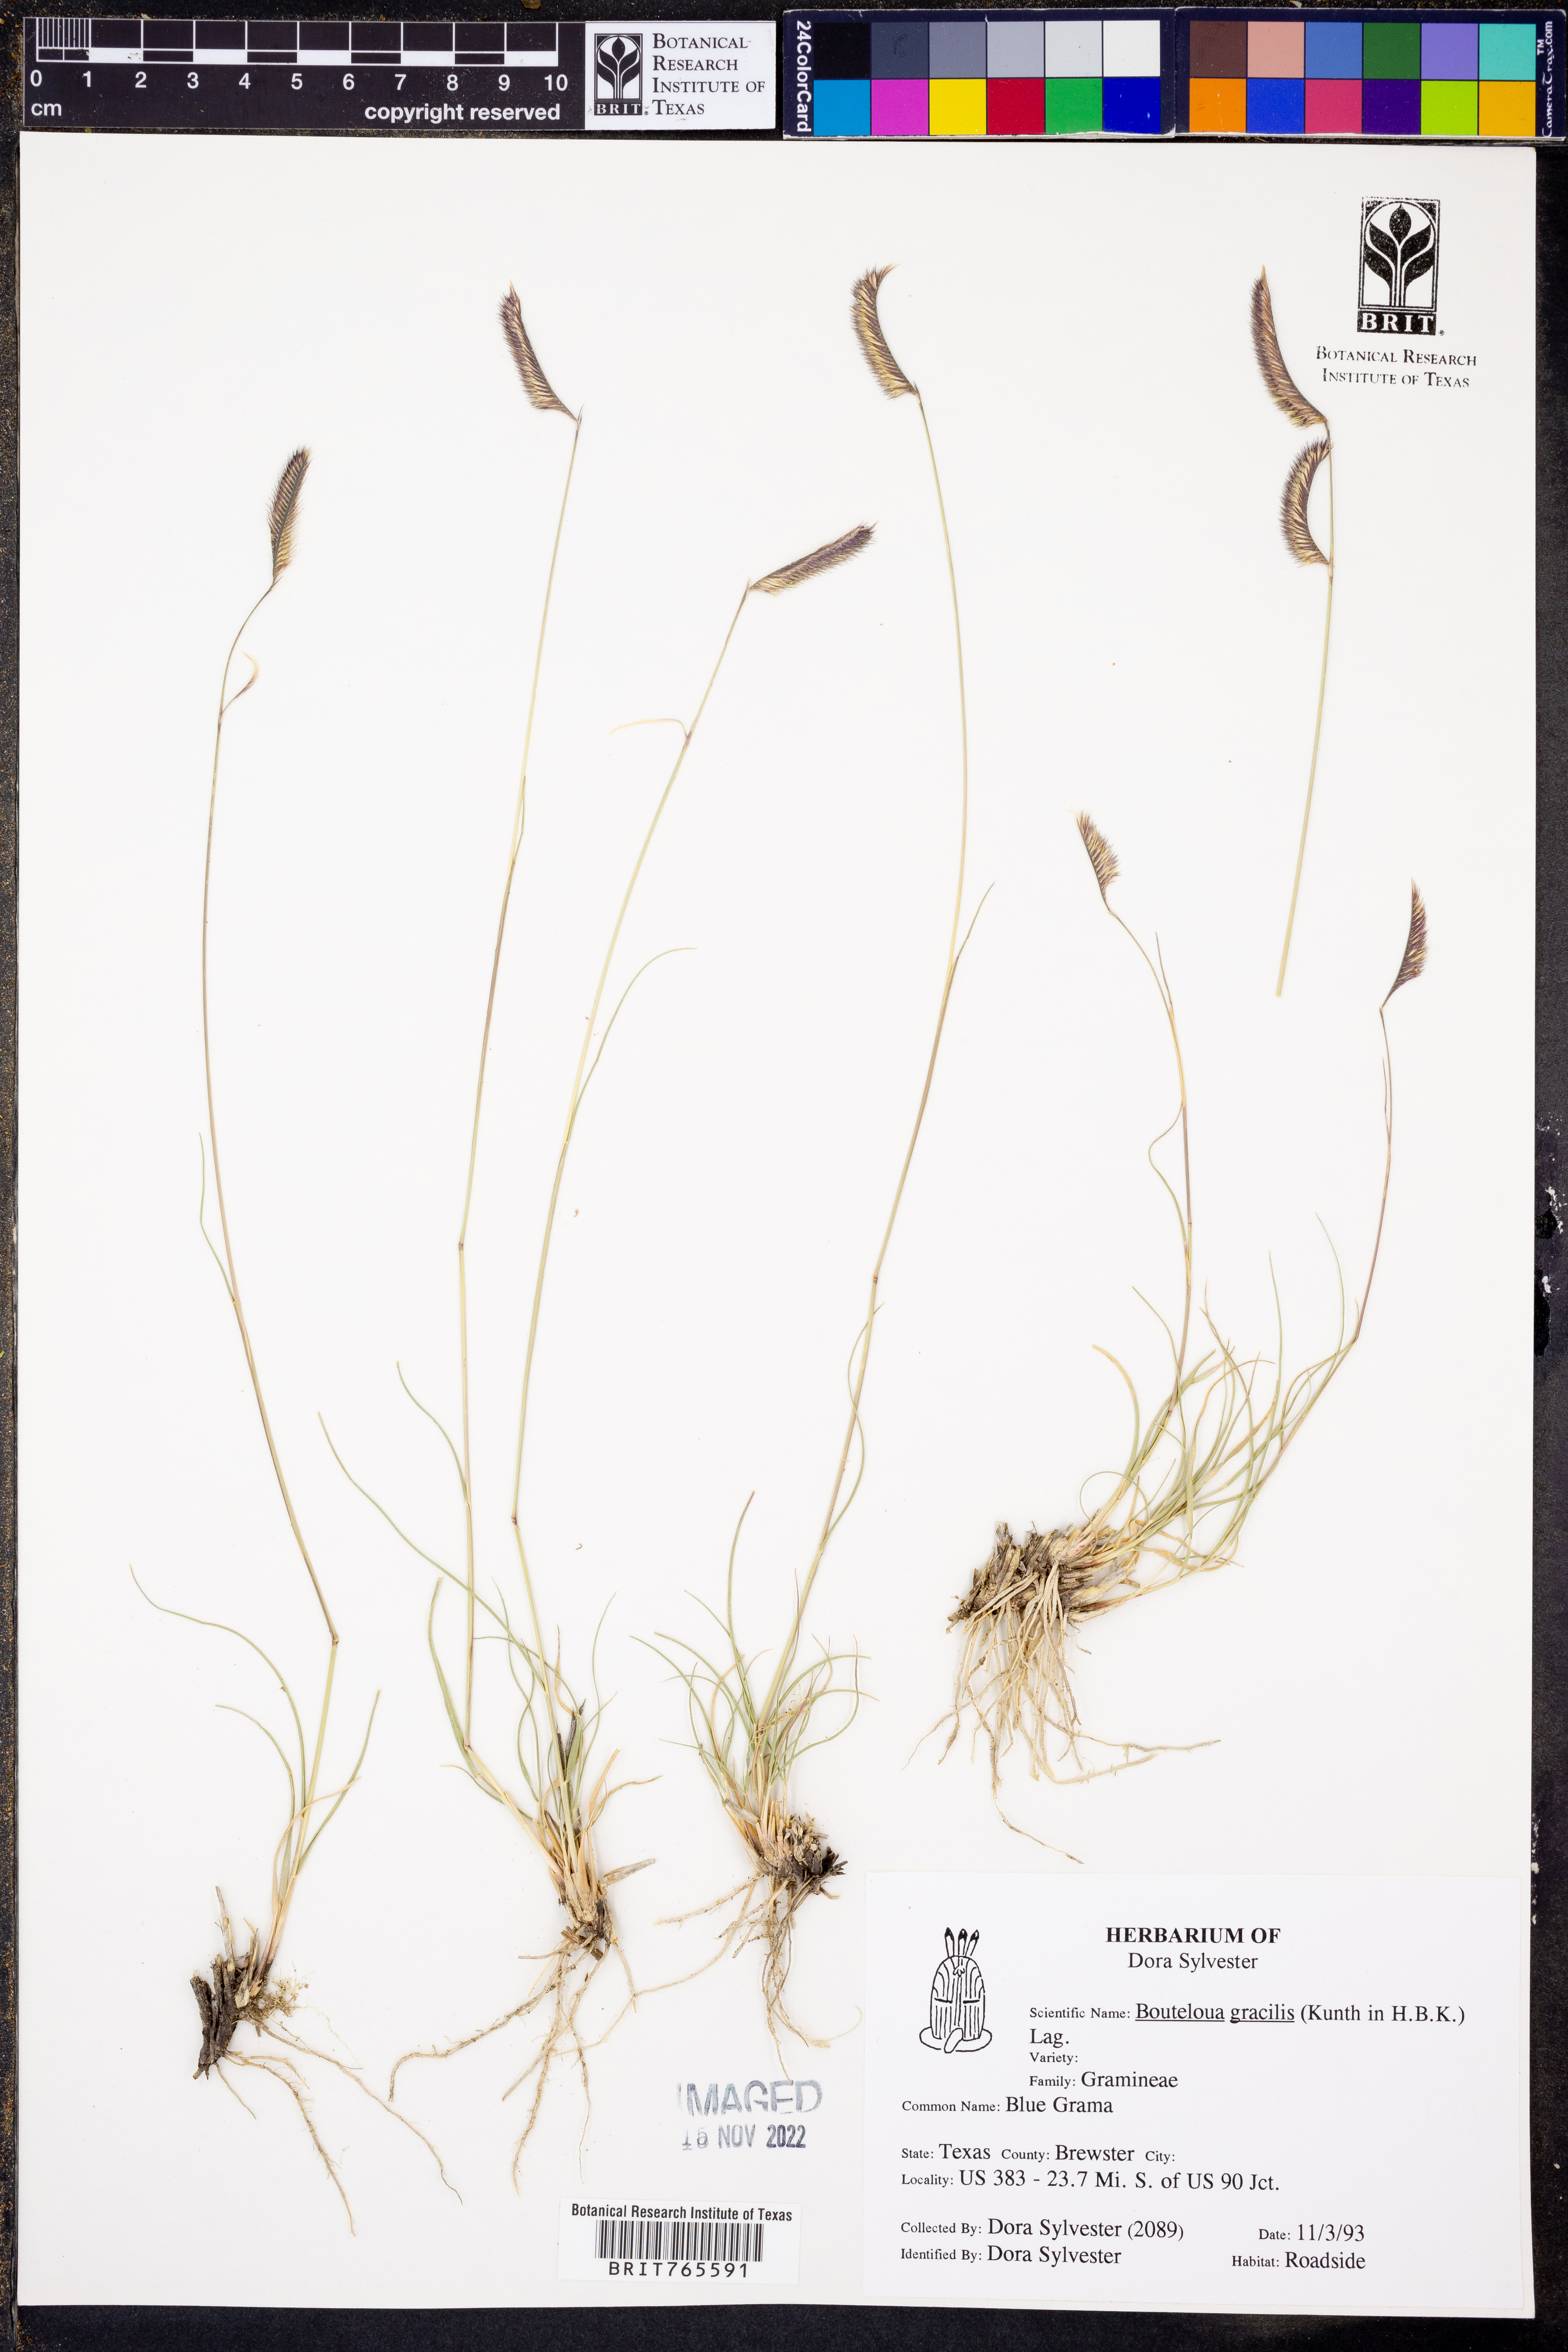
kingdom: Plantae
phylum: Tracheophyta
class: Liliopsida
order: Poales
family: Poaceae
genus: Bouteloua
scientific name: Bouteloua gracilis
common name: Blue grama
